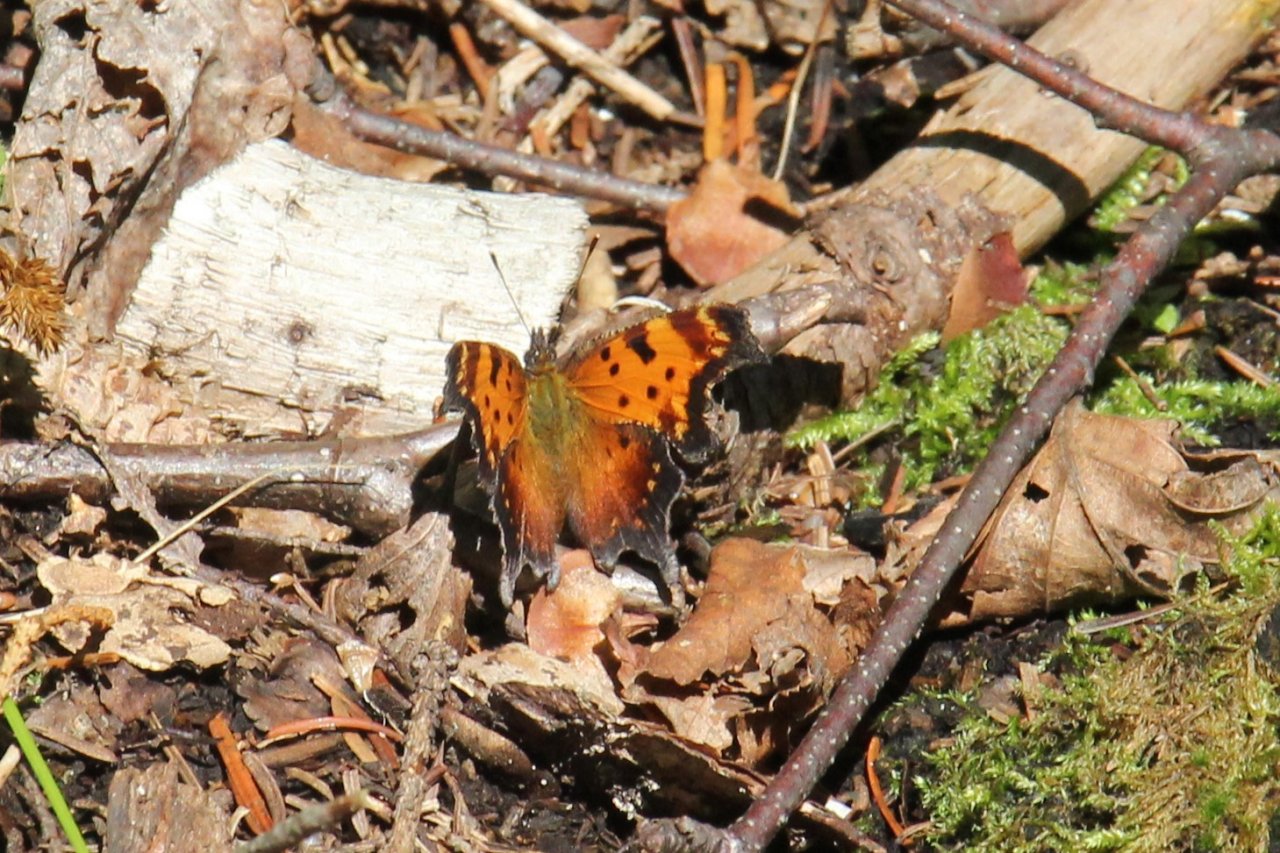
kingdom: Animalia
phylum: Arthropoda
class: Insecta
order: Lepidoptera
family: Nymphalidae
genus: Polygonia
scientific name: Polygonia progne
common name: Gray Comma
